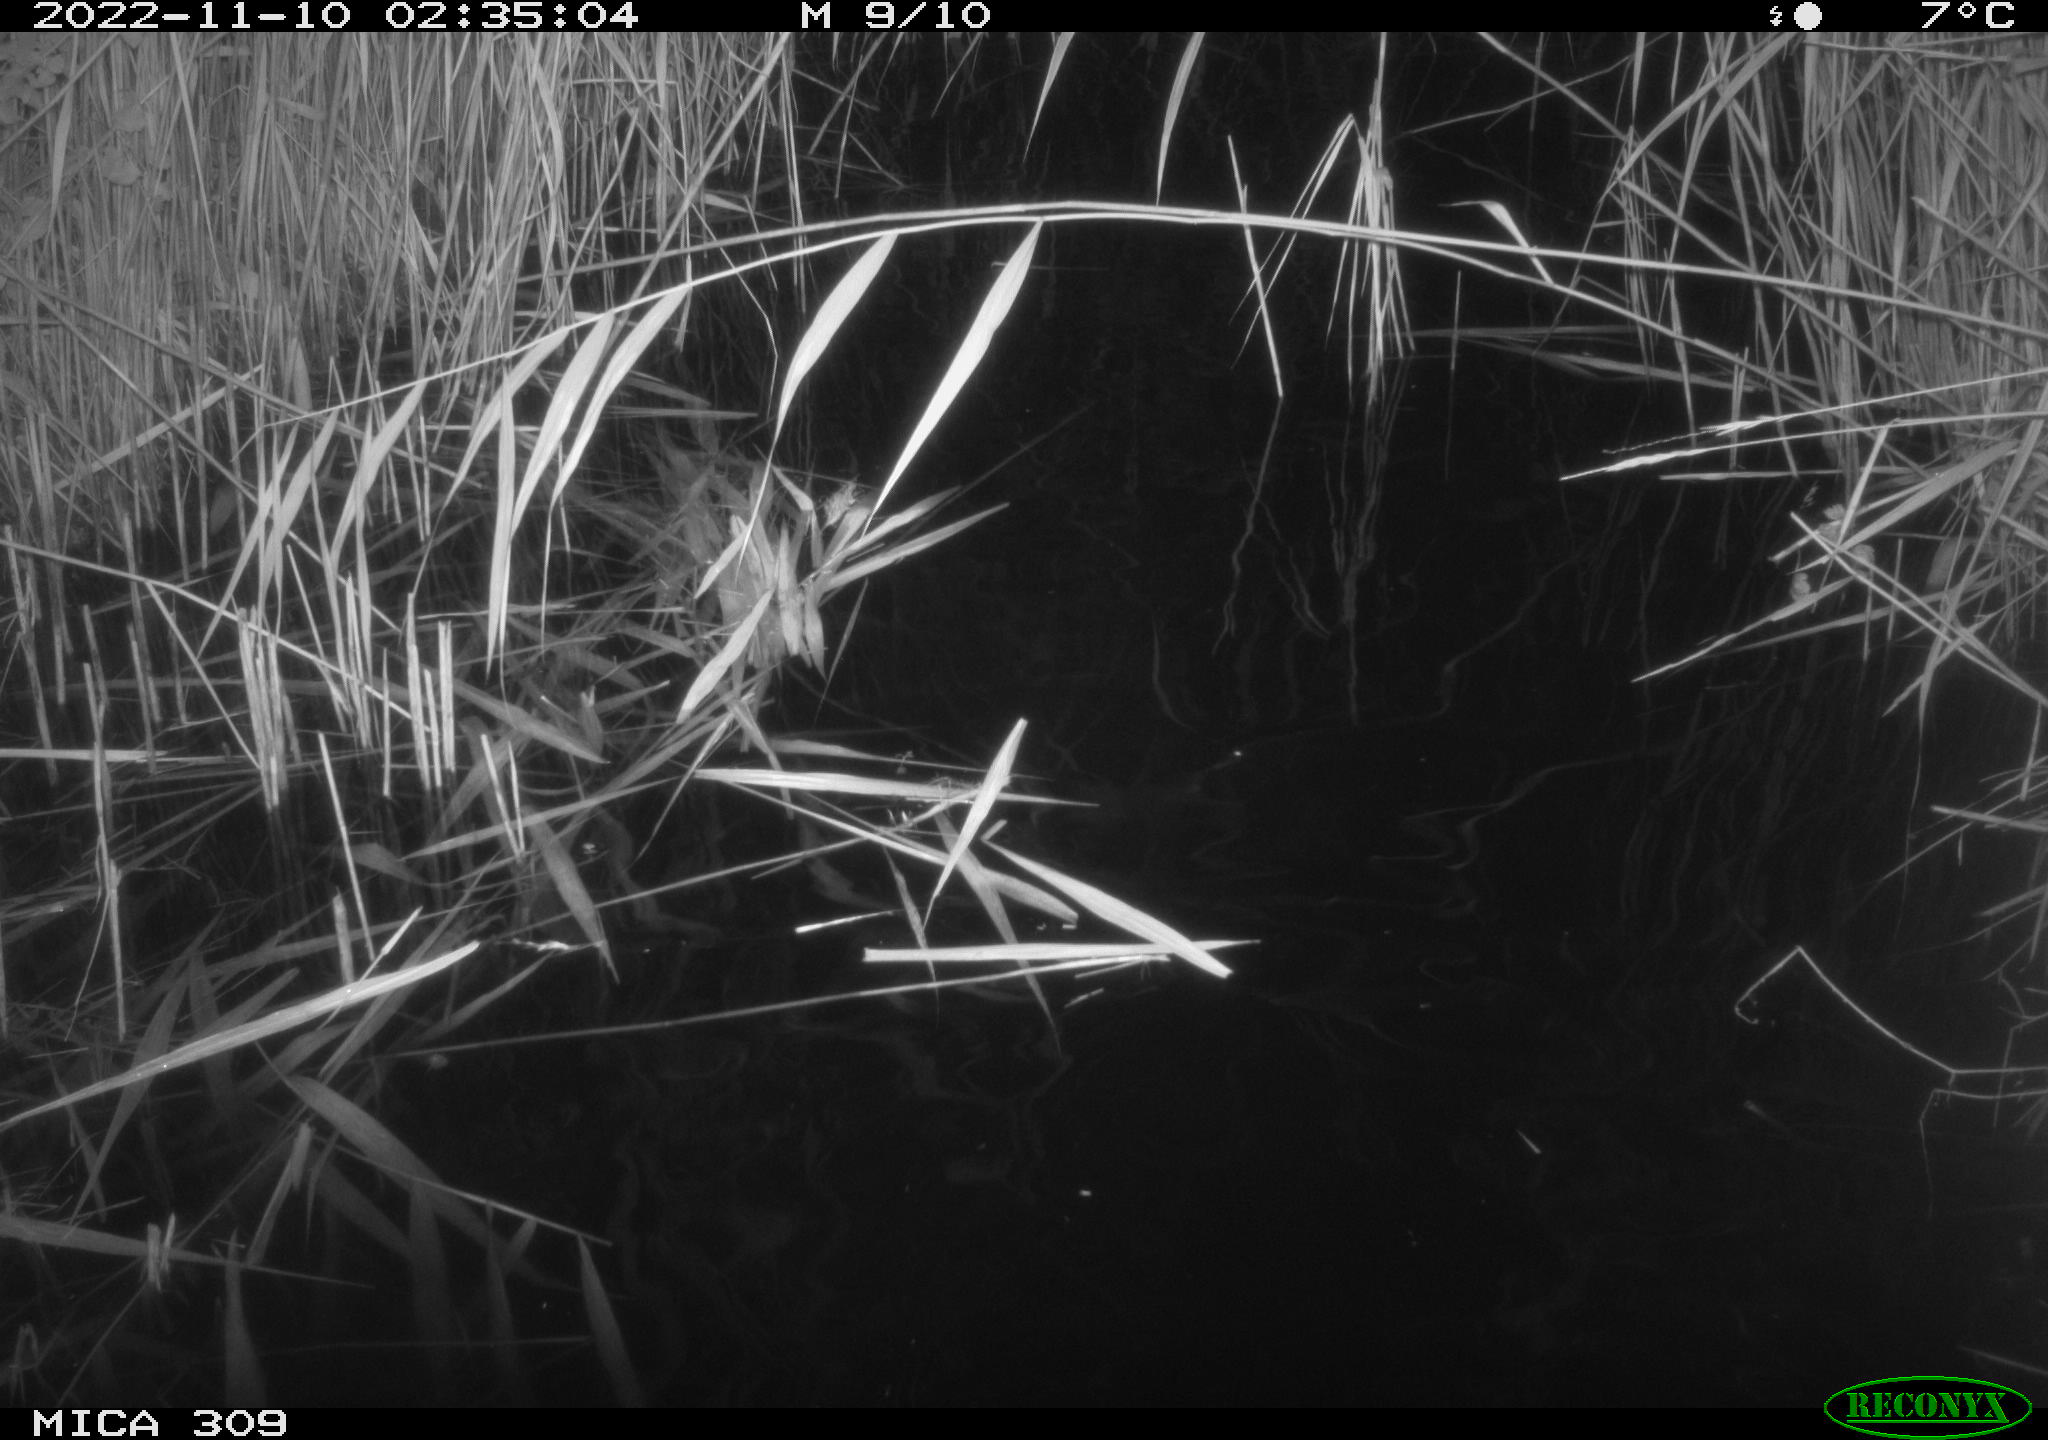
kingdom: Animalia
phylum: Chordata
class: Mammalia
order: Rodentia
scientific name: Rodentia
